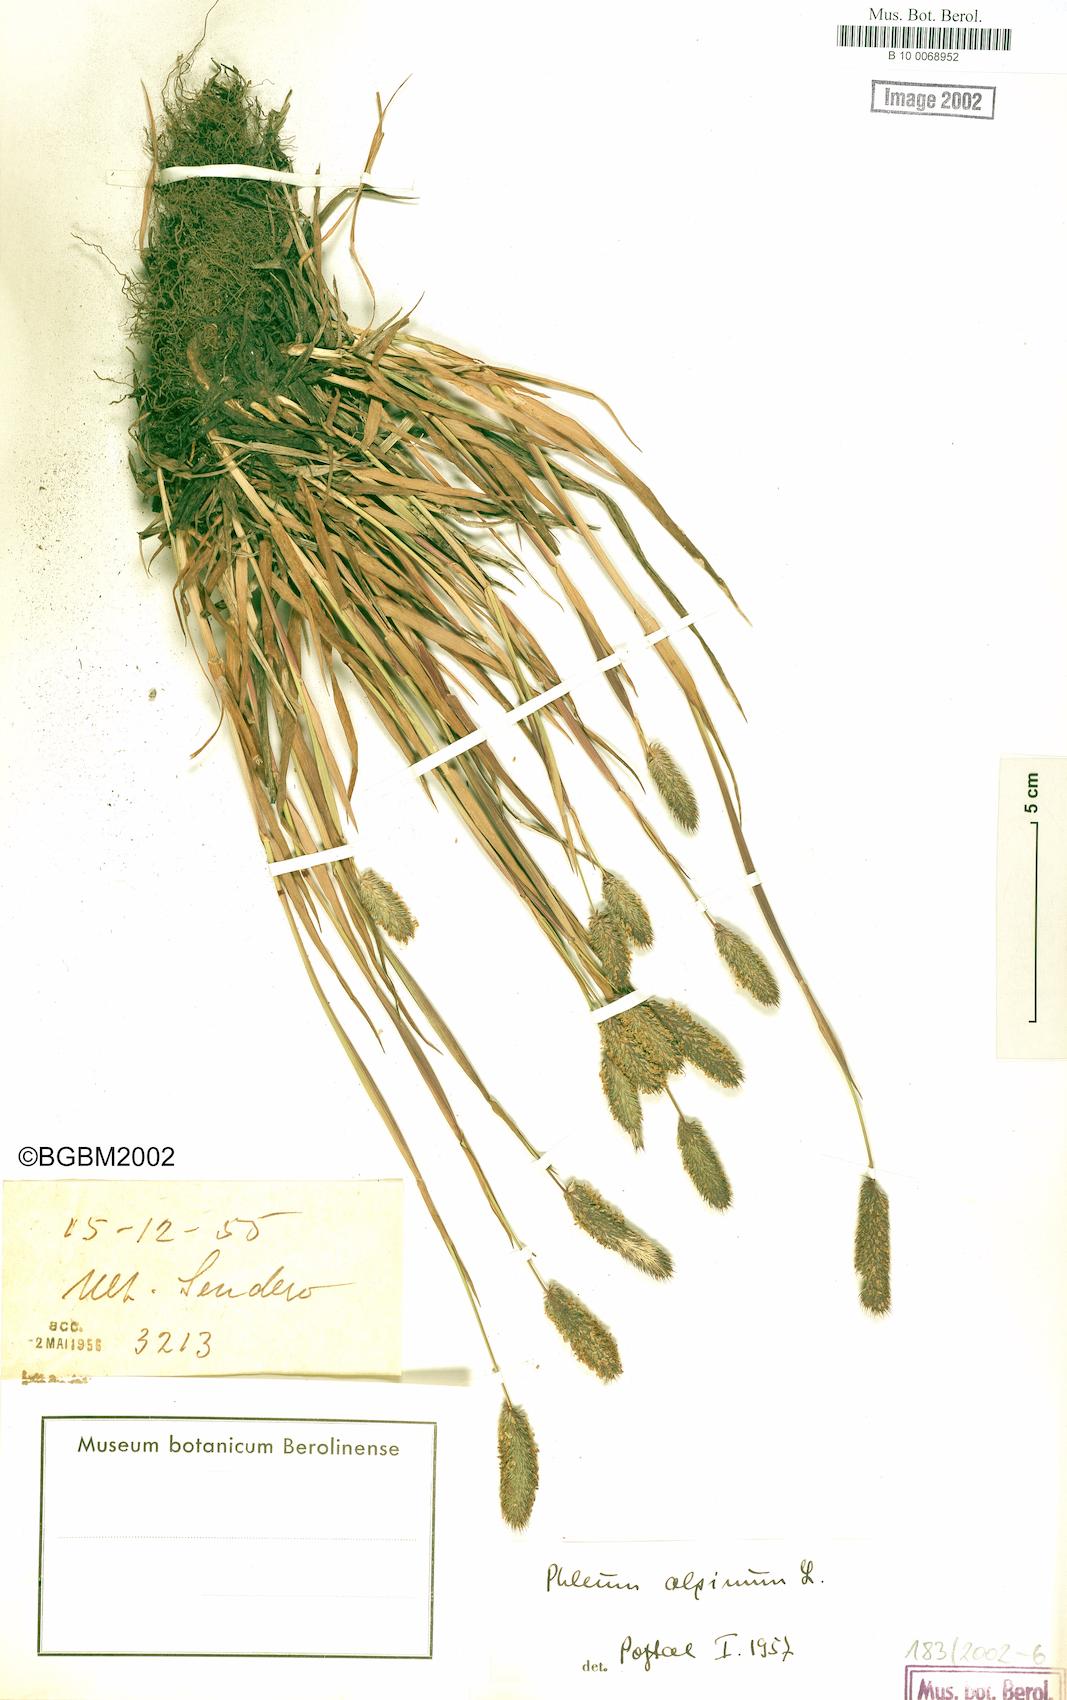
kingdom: Plantae
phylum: Tracheophyta
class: Liliopsida
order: Poales
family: Poaceae
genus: Phleum
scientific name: Phleum alpinum
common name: Alpine cat's-tail
